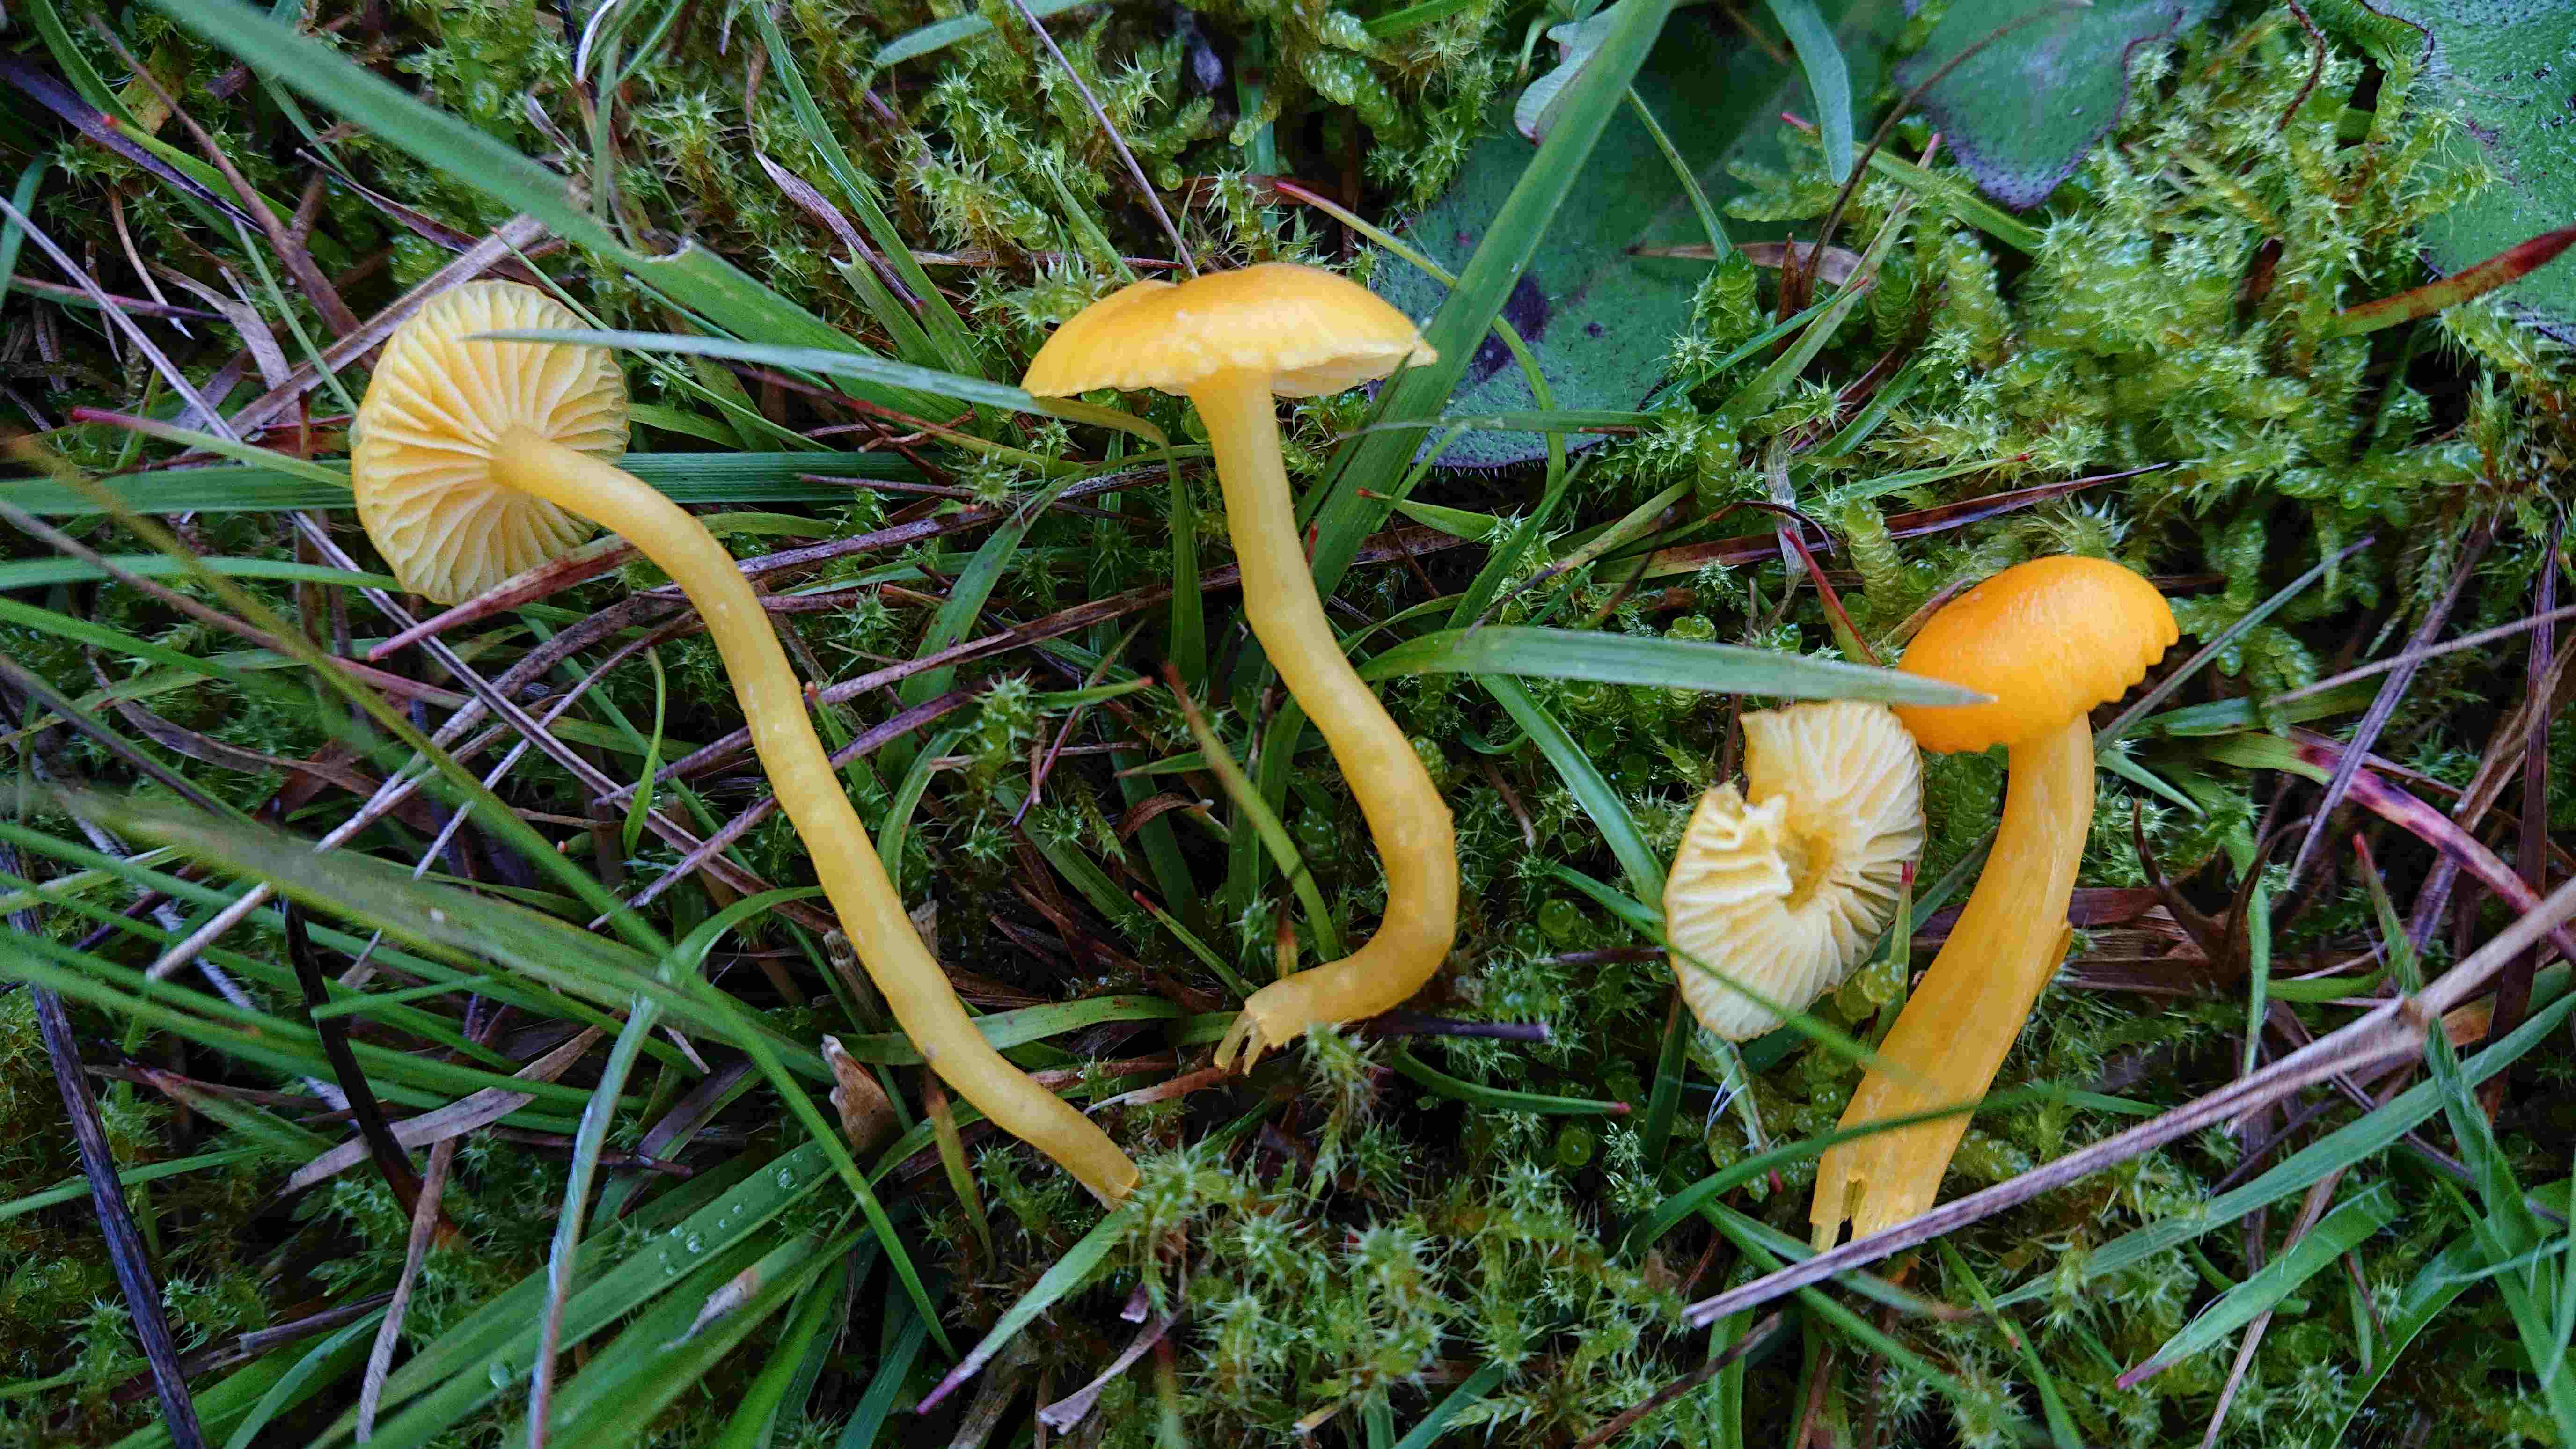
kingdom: Fungi
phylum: Basidiomycota
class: Agaricomycetes
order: Agaricales
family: Hygrophoraceae
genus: Hygrocybe
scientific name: Hygrocybe ceracea
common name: voksgul vokshat
